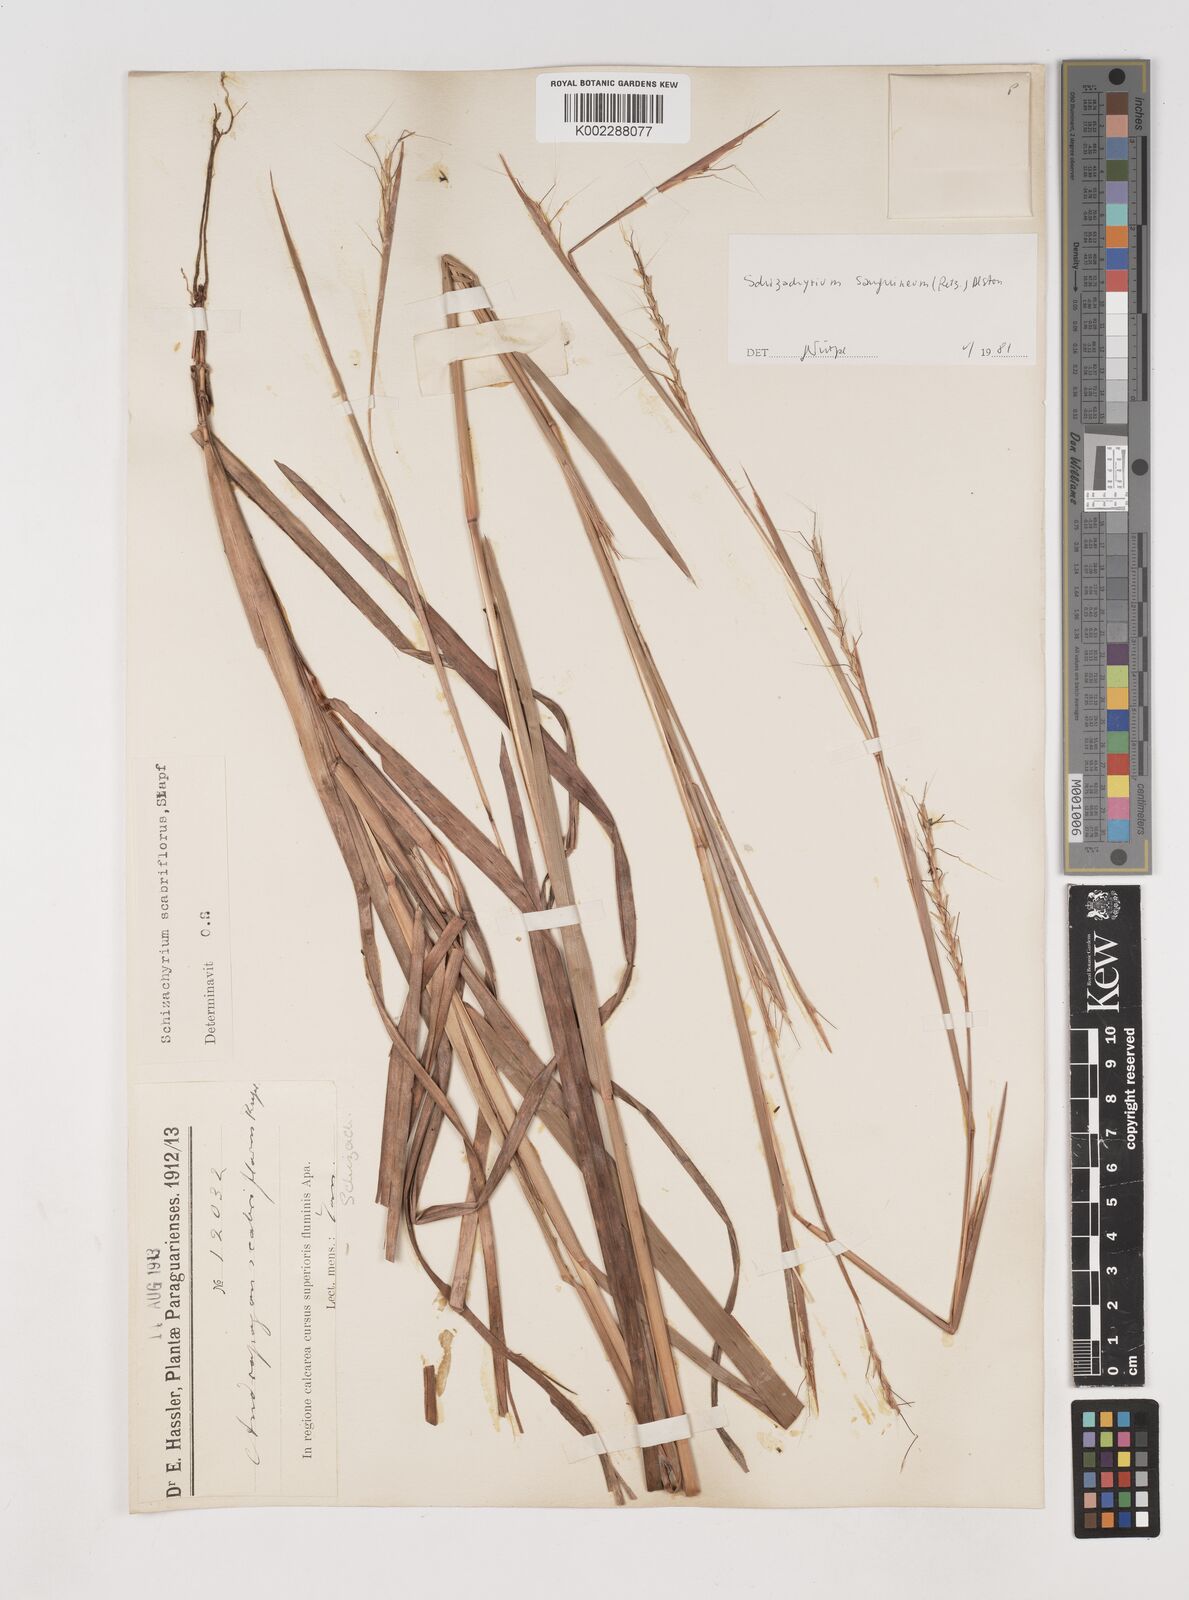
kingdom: Plantae
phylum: Tracheophyta
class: Liliopsida
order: Poales
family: Poaceae
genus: Schizachyrium
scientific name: Schizachyrium scabriflorum
